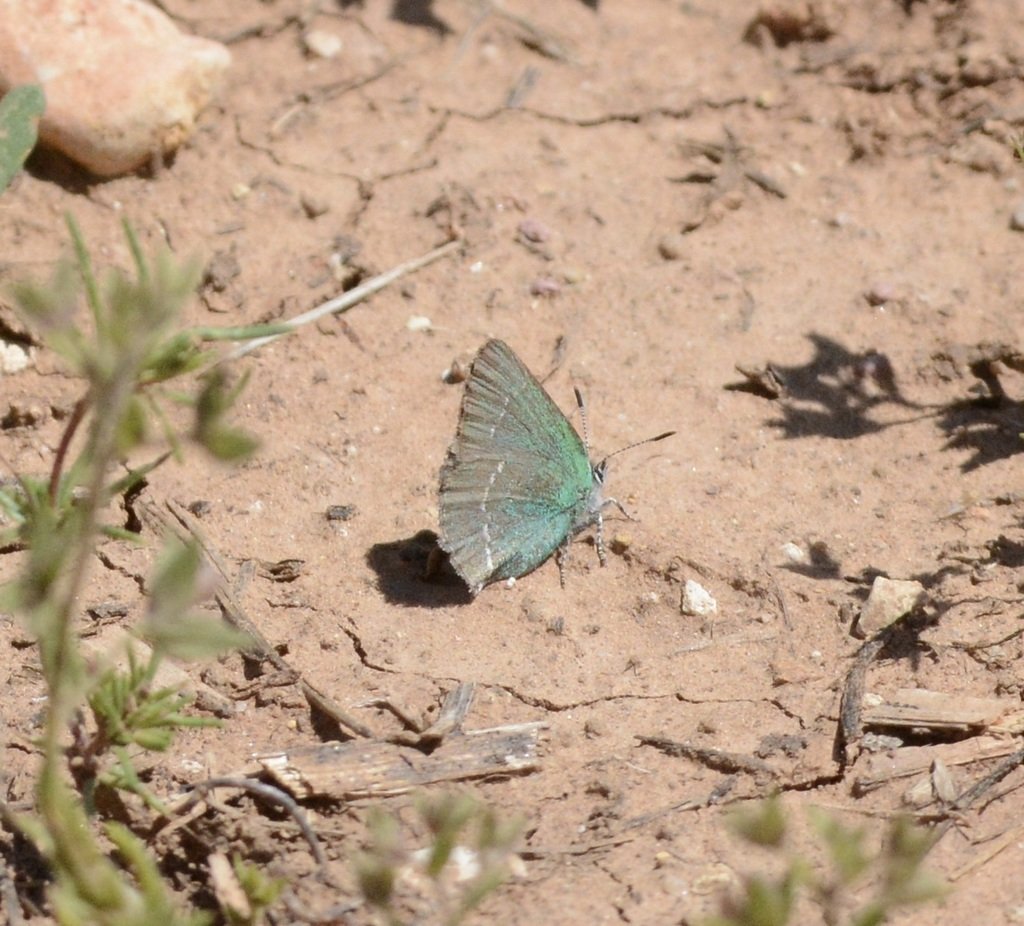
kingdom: Animalia
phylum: Arthropoda
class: Insecta
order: Lepidoptera
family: Lycaenidae
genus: Thecla
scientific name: Thecla sheridanii
